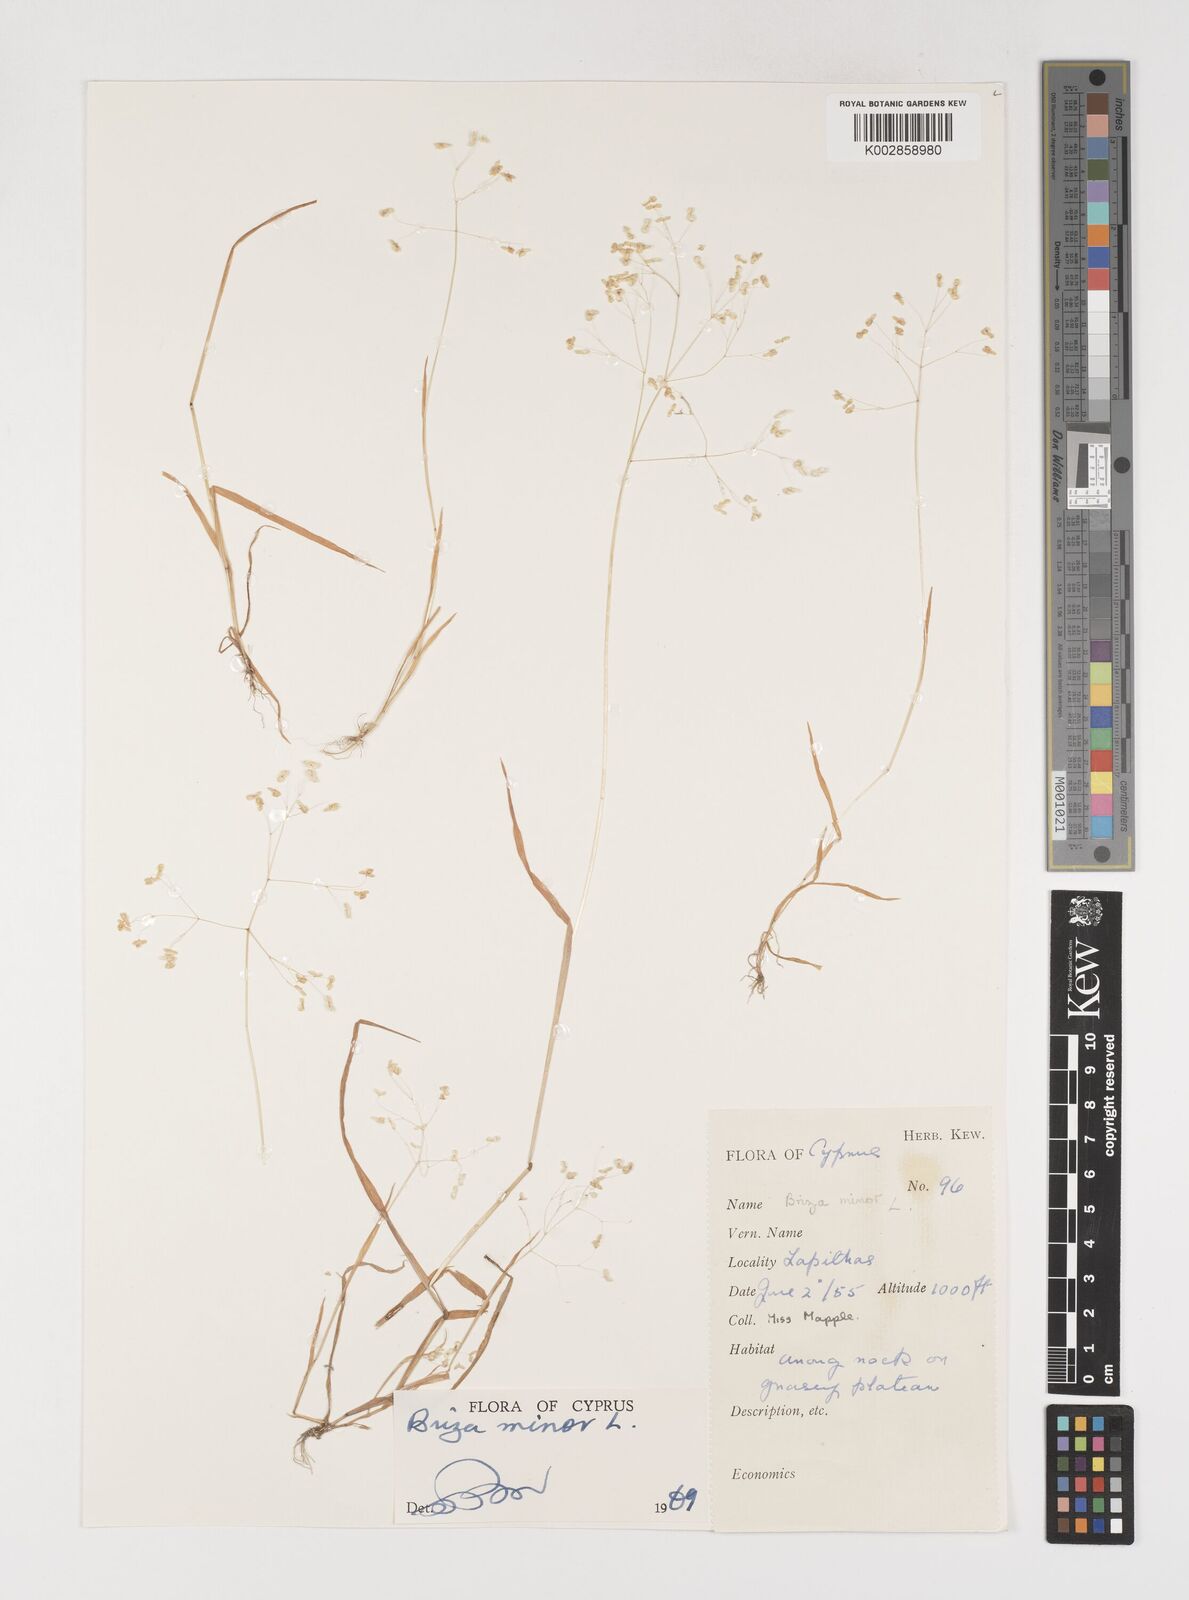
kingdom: Plantae
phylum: Tracheophyta
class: Liliopsida
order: Poales
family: Poaceae
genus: Briza
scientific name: Briza minor
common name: Lesser quaking-grass
